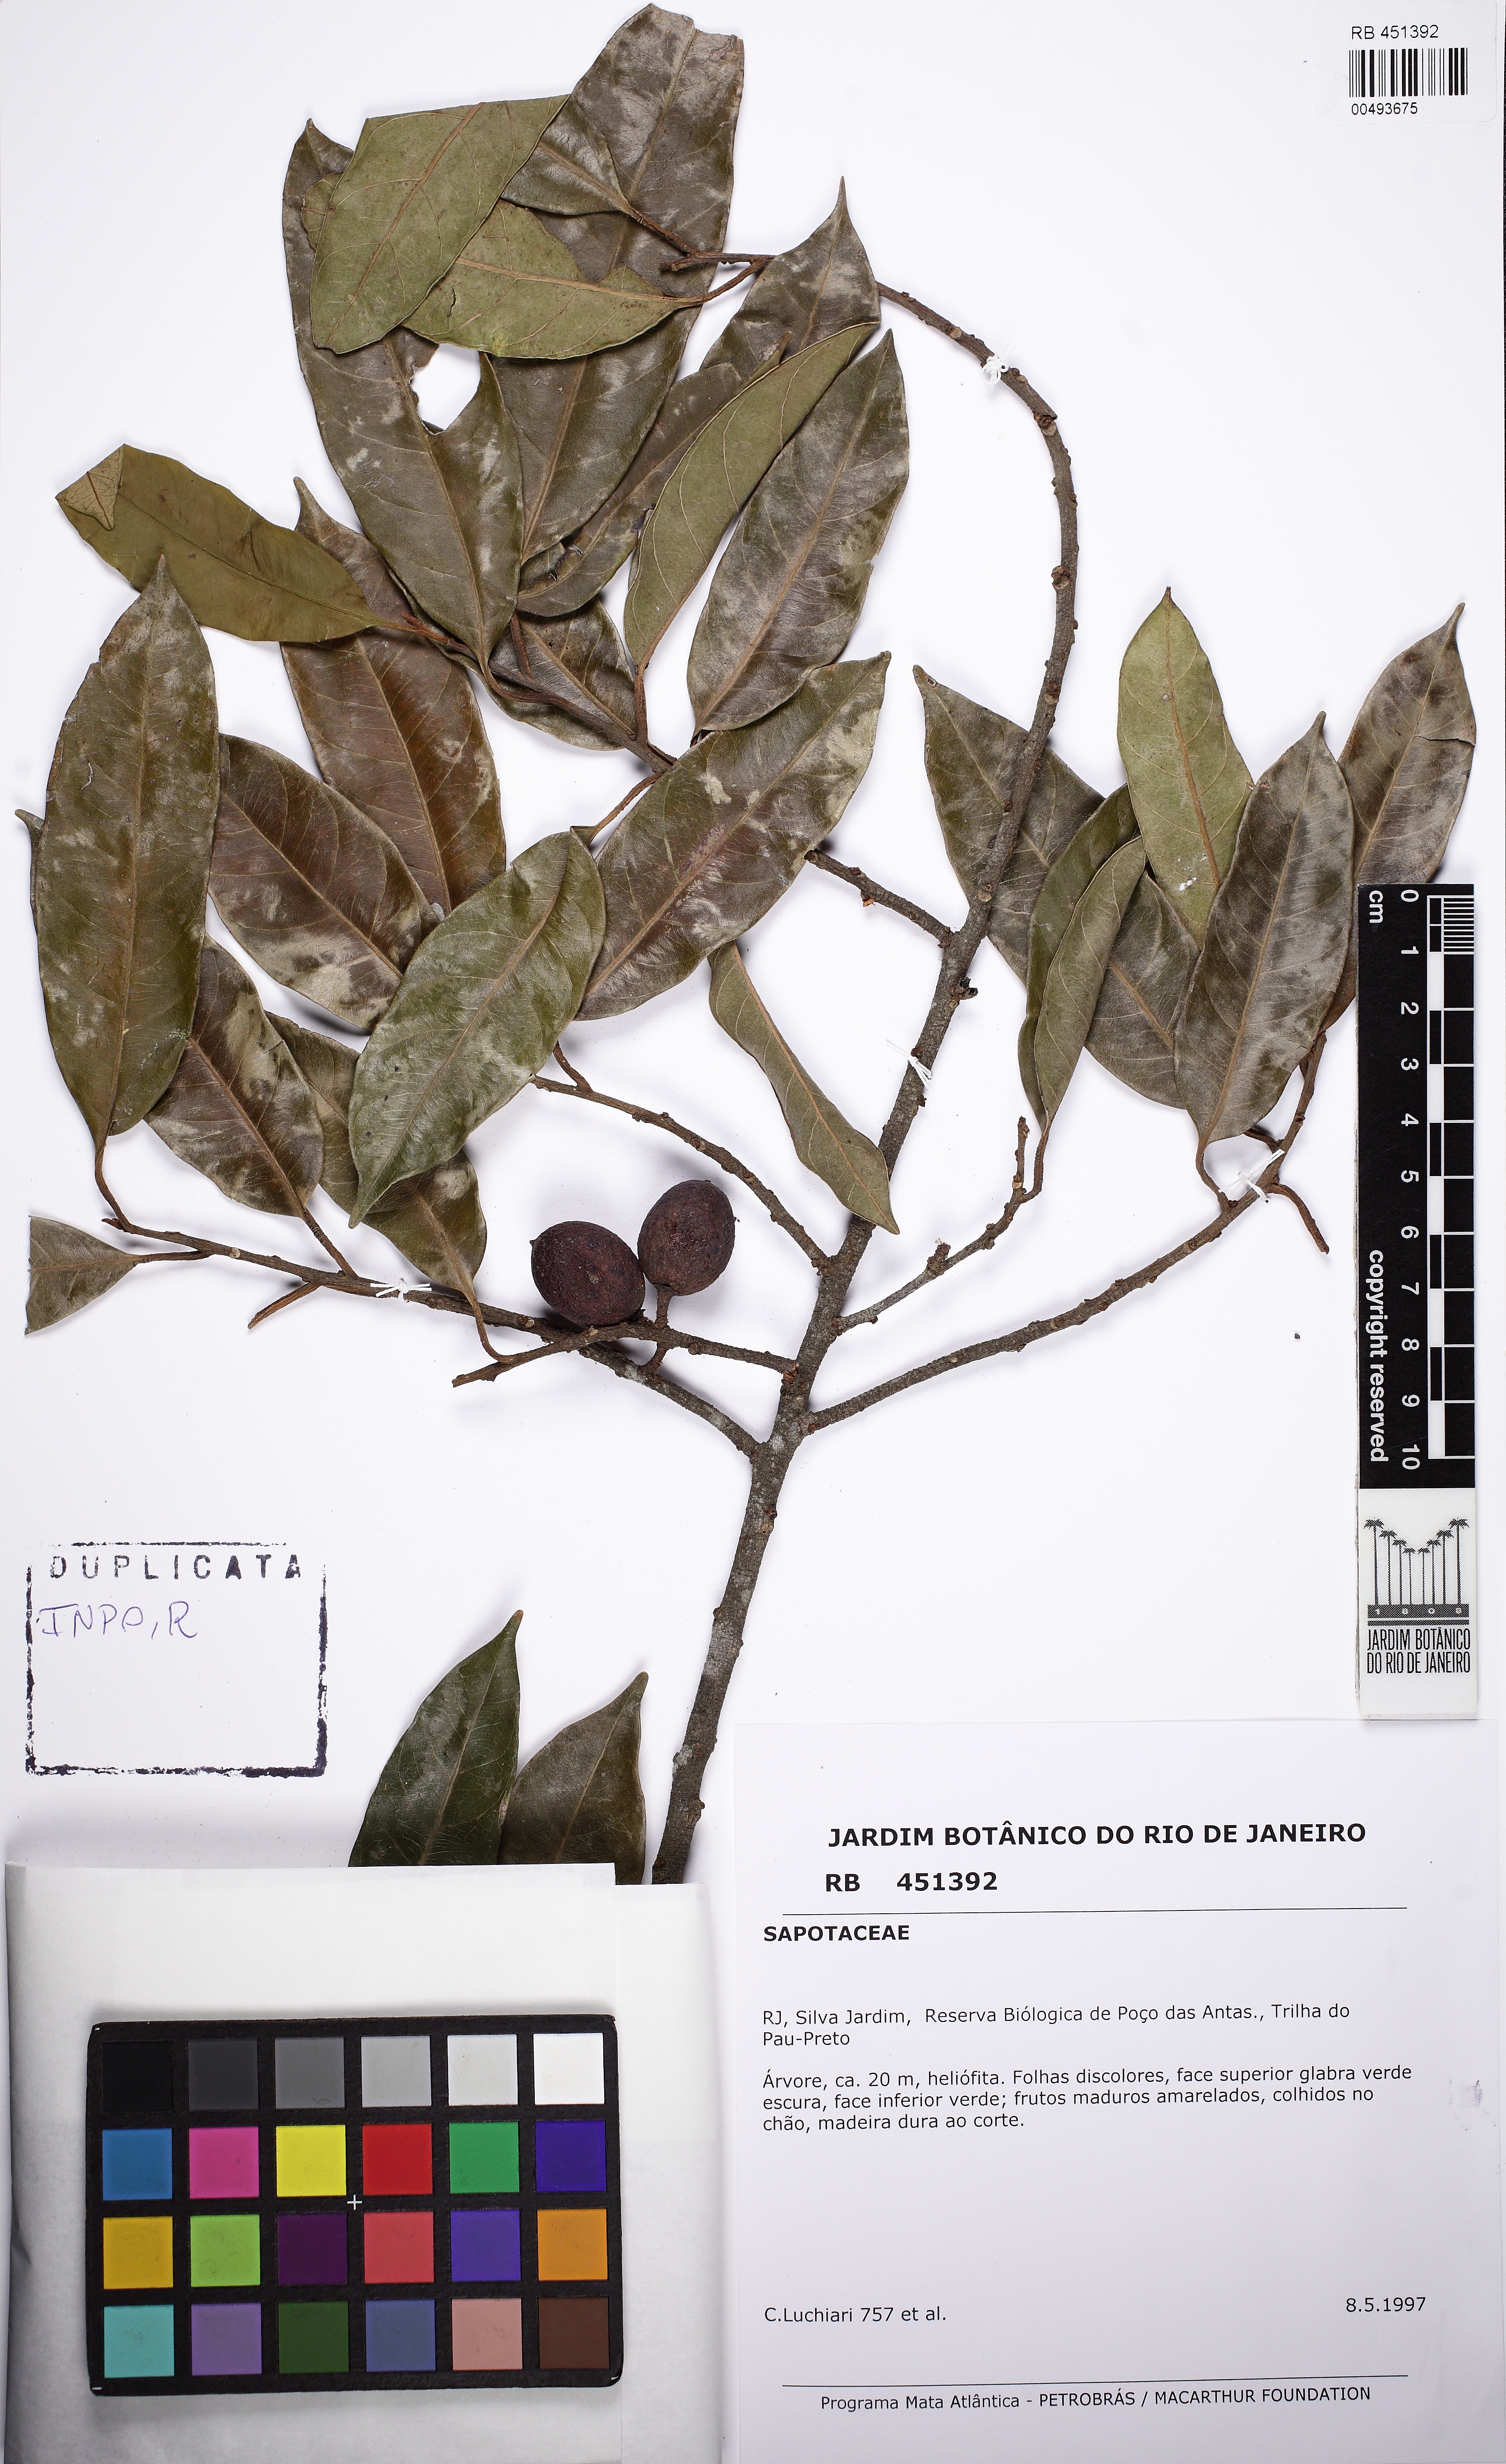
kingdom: Plantae
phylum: Tracheophyta
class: Magnoliopsida
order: Ericales
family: Sapotaceae
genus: Pouteria
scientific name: Pouteria bangii
